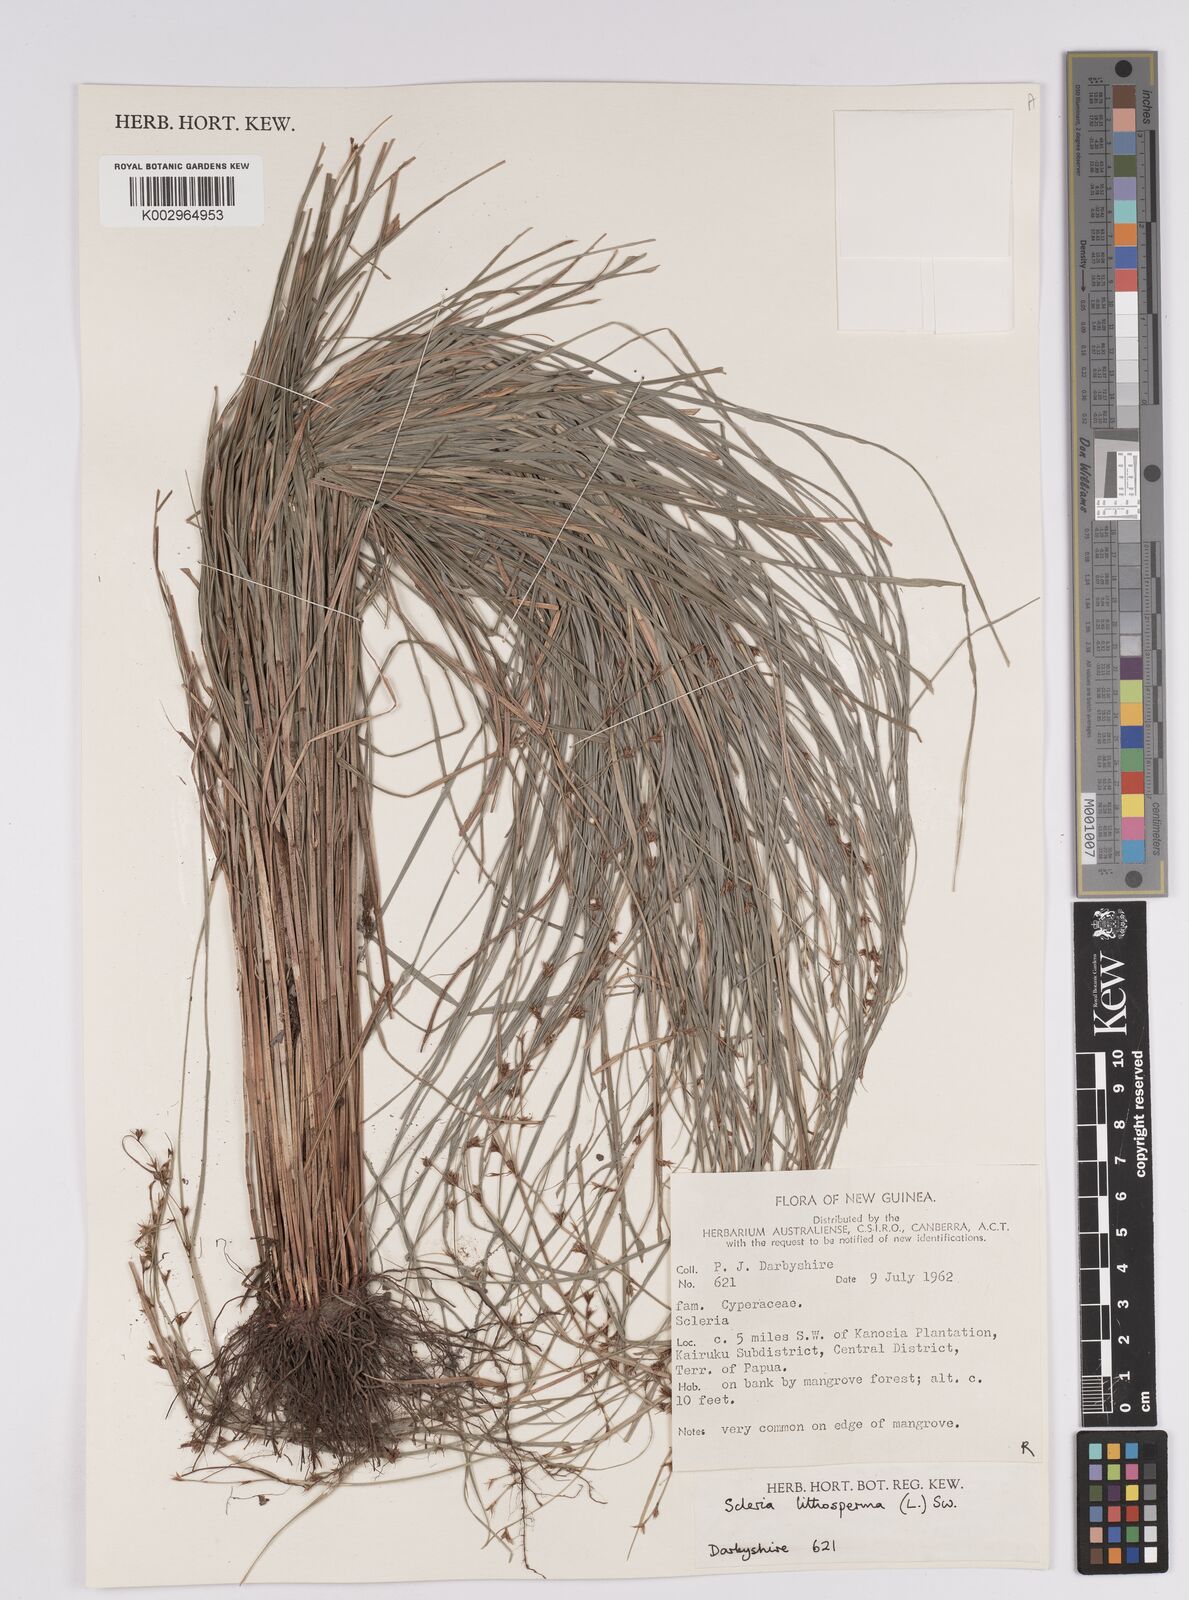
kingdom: Plantae
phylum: Tracheophyta
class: Liliopsida
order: Poales
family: Cyperaceae
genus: Scleria
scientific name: Scleria lithosperma
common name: Florida keys nut-rush
